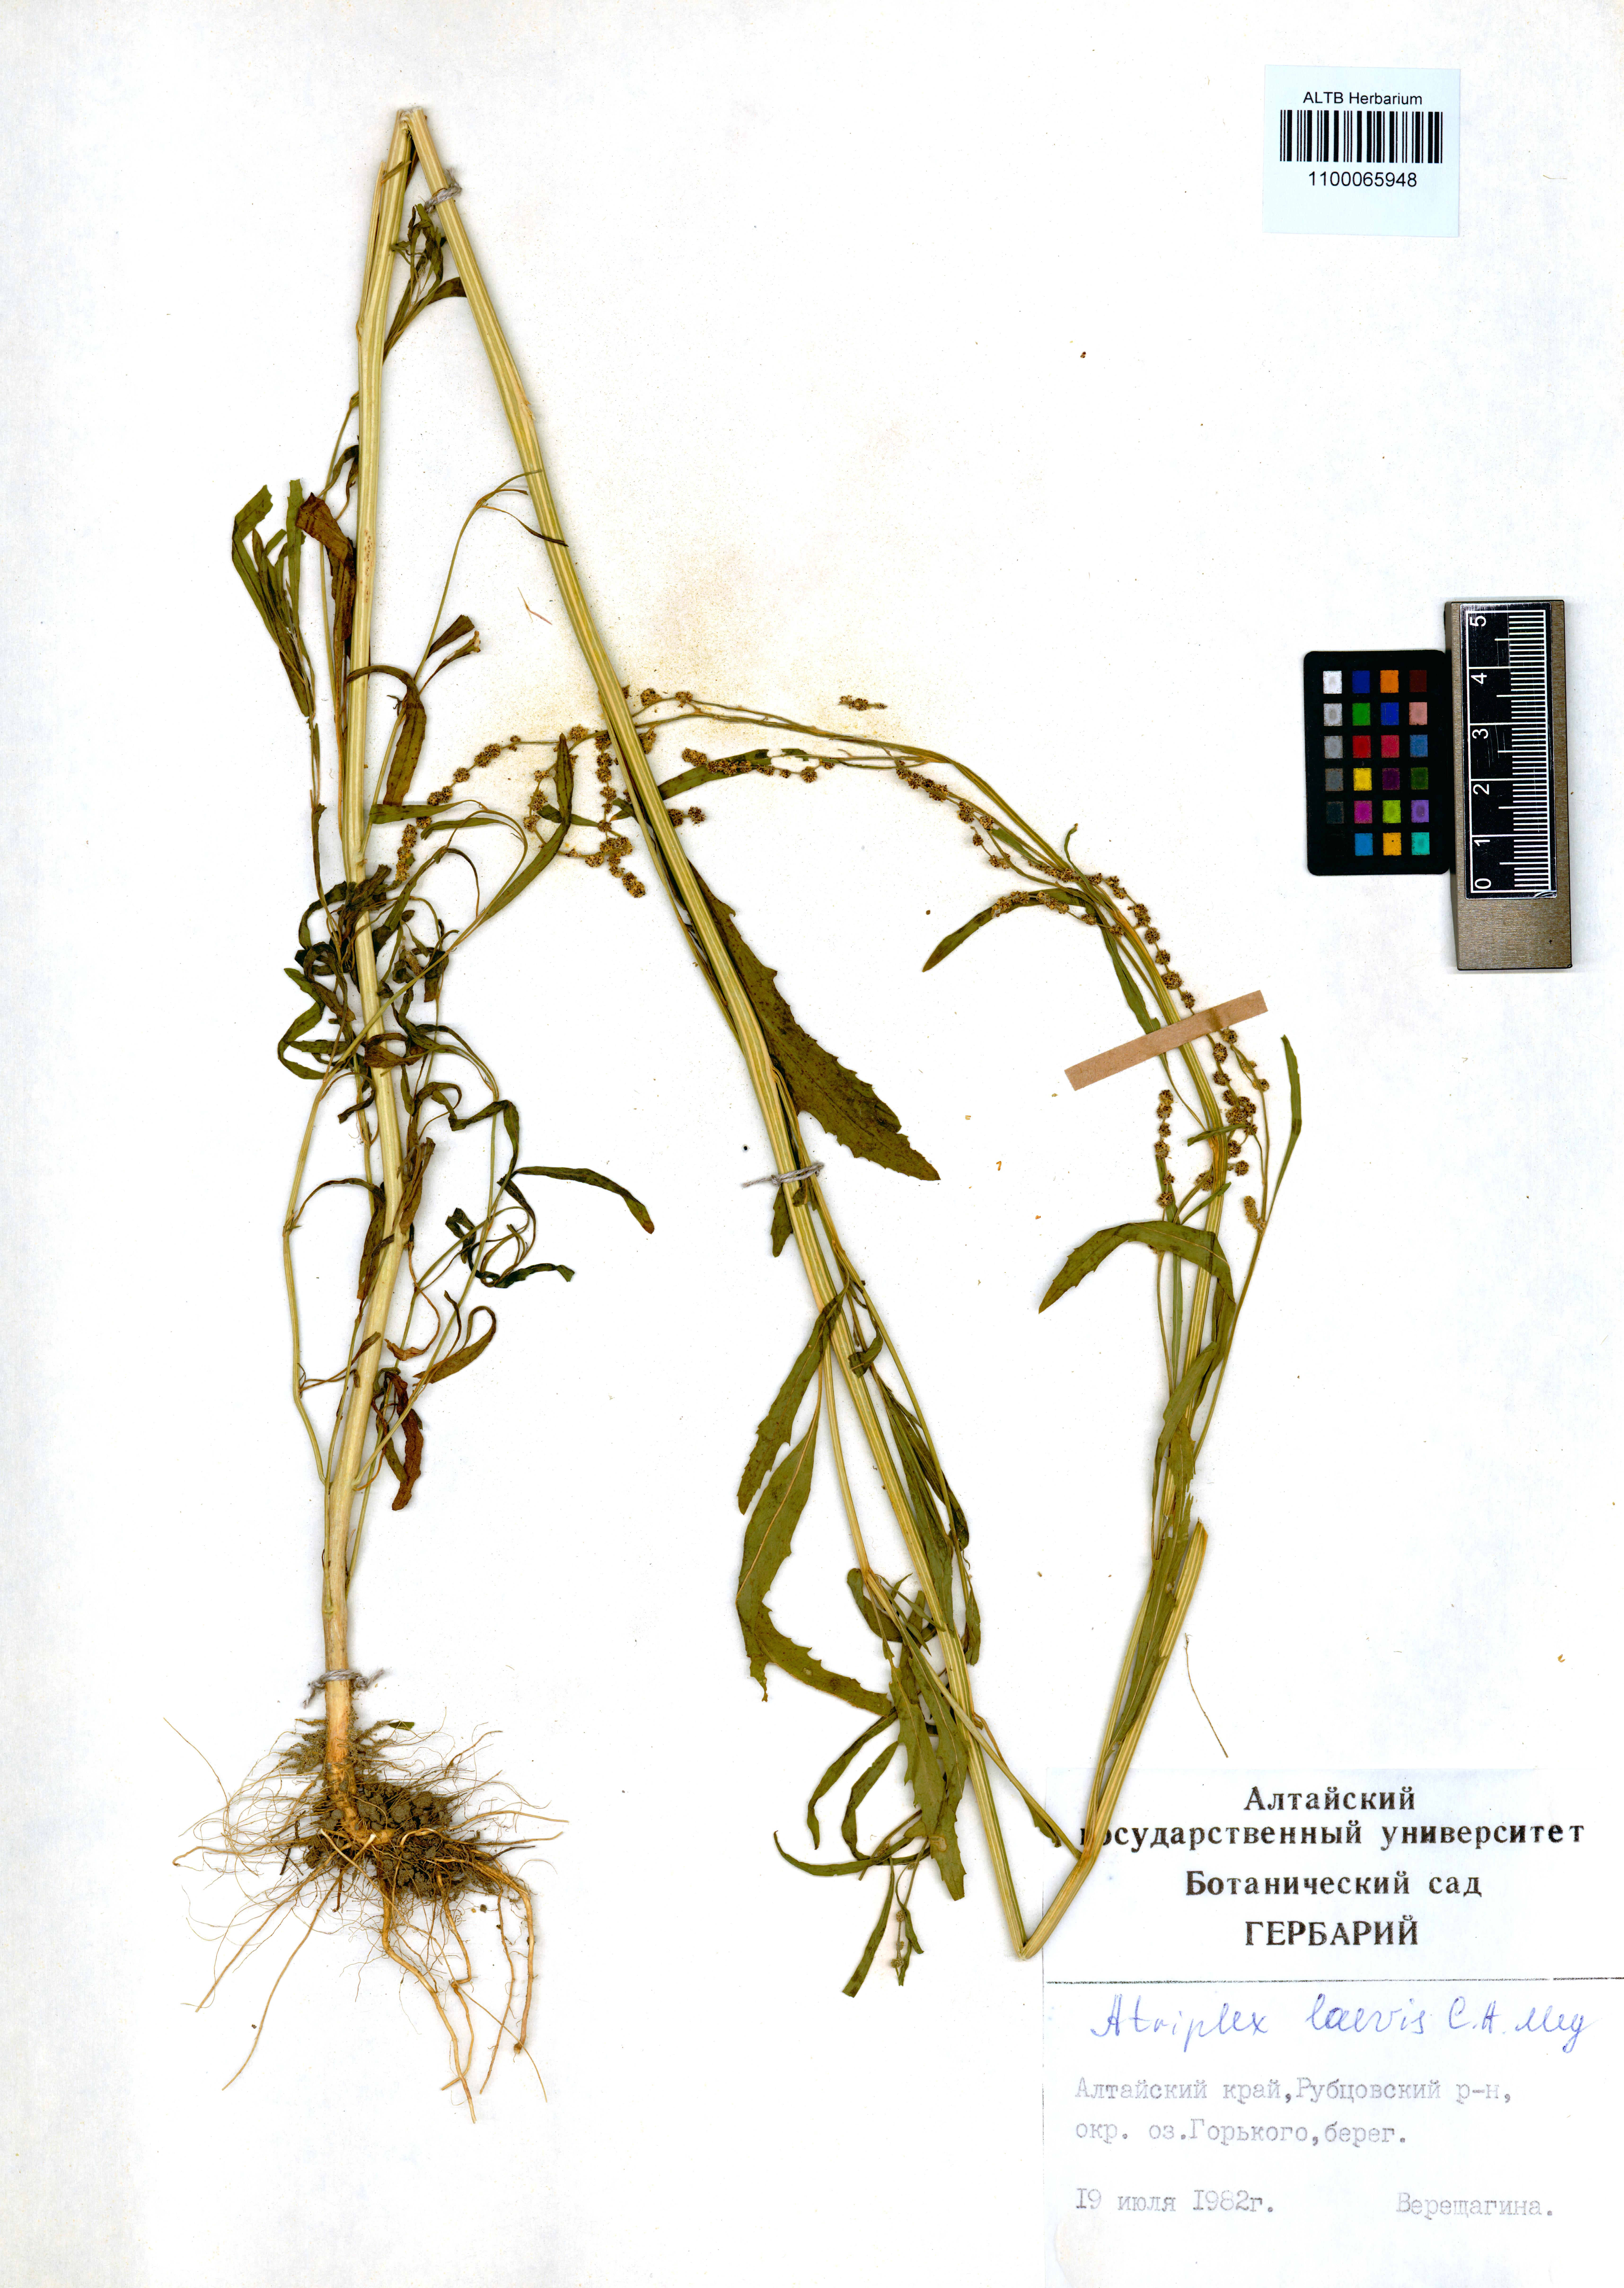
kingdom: Plantae
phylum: Tracheophyta
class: Magnoliopsida
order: Caryophyllales
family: Amaranthaceae
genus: Atriplex
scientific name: Atriplex laevis
